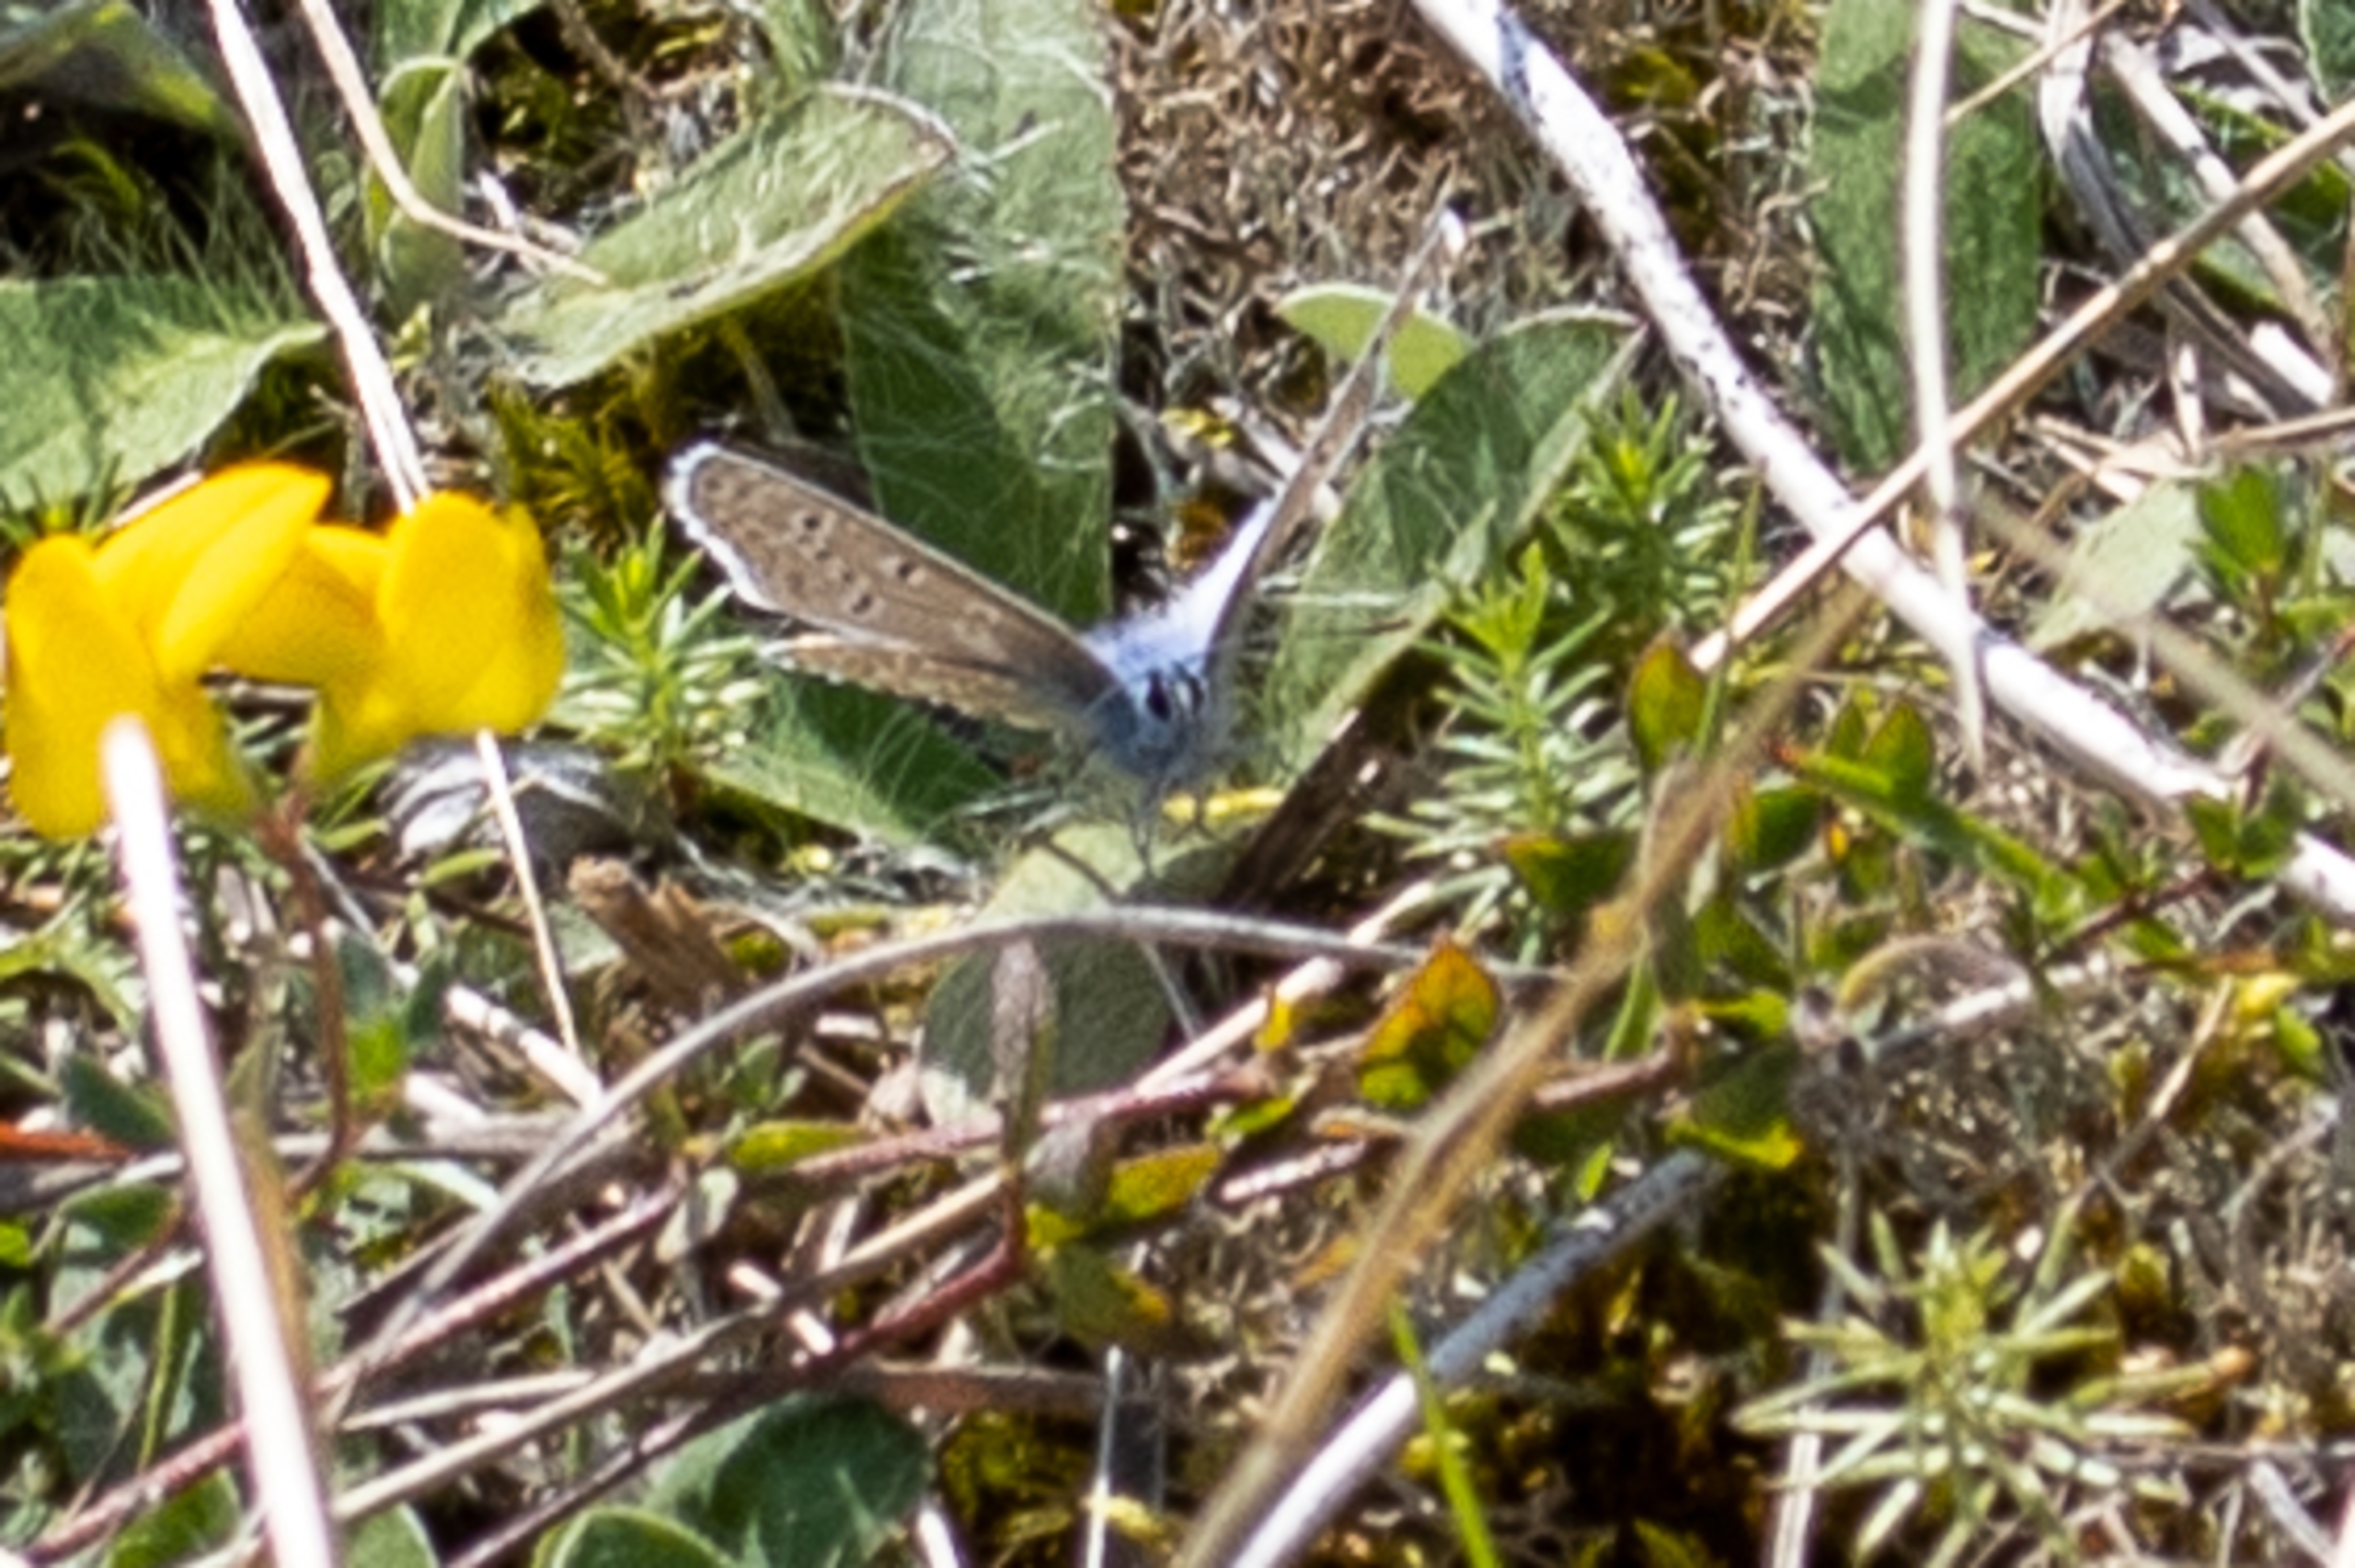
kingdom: Animalia
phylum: Arthropoda
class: Insecta
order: Lepidoptera
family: Lycaenidae
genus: Polyommatus
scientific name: Polyommatus icarus
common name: Almindelig blåfugl
